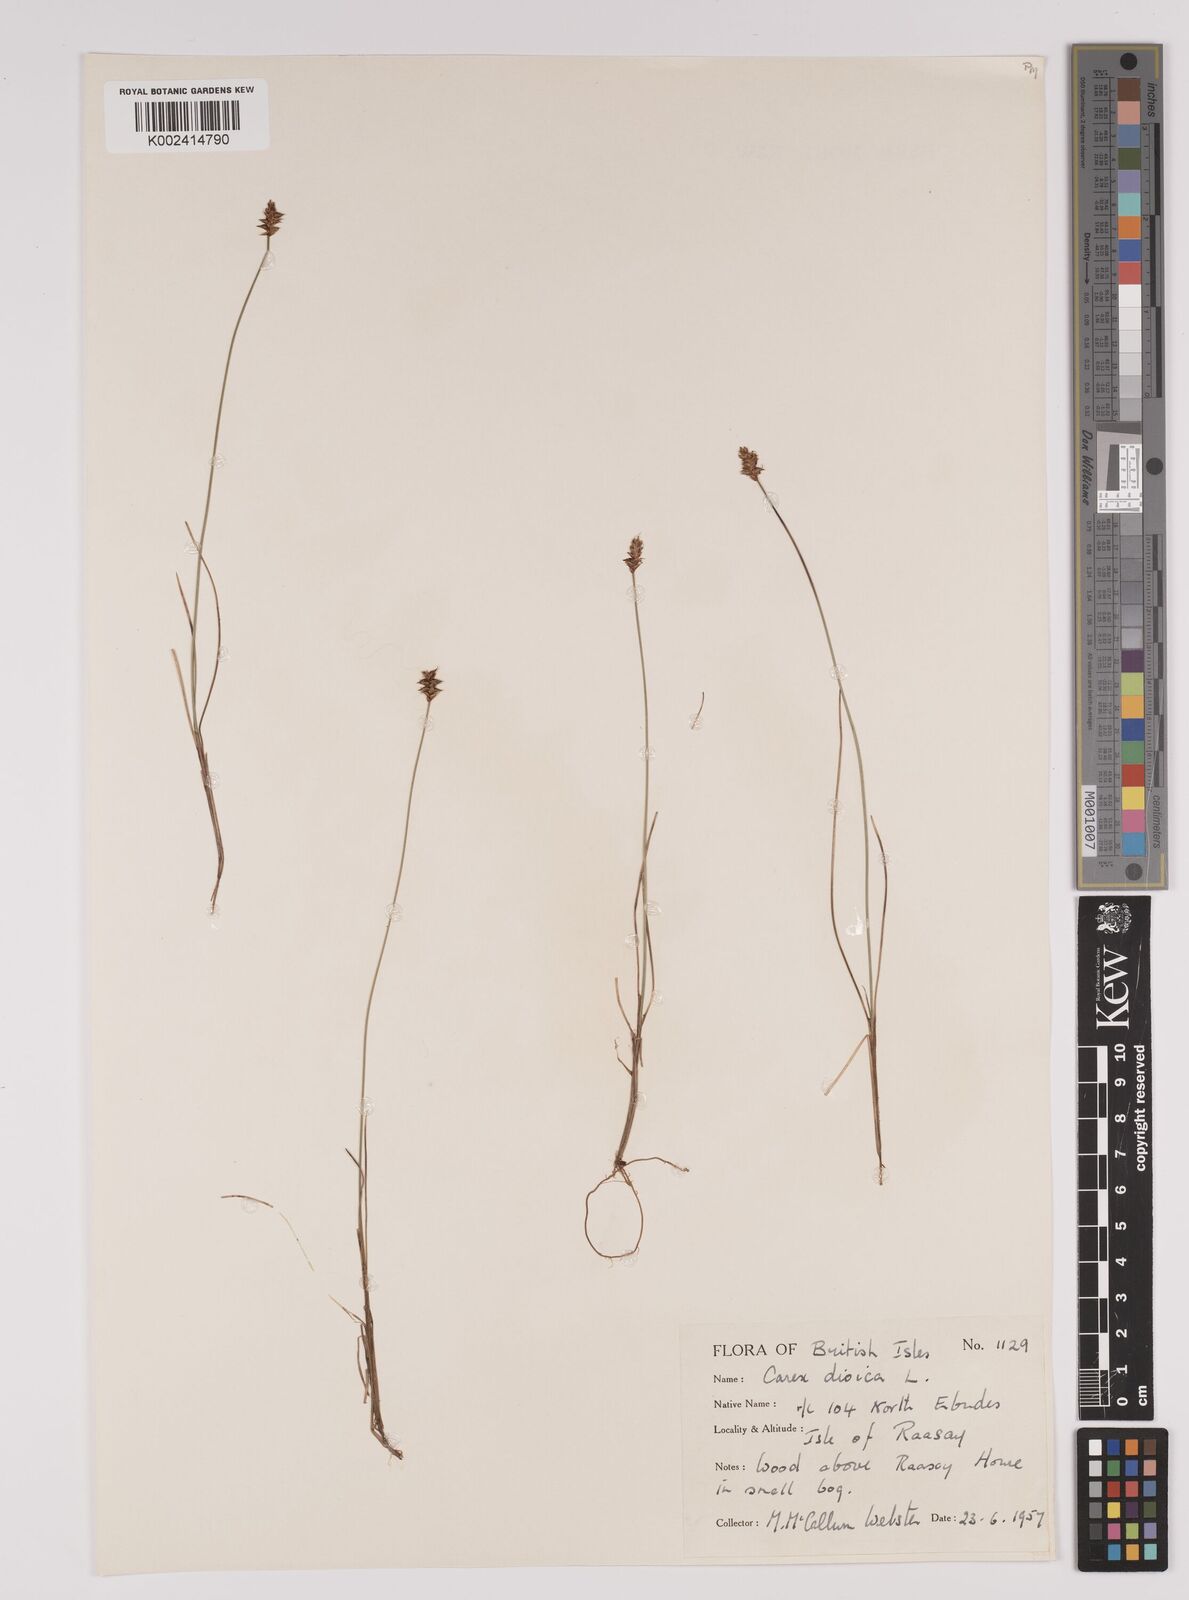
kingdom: Plantae
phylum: Tracheophyta
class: Liliopsida
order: Poales
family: Cyperaceae
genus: Carex
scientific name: Carex dioica
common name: Dioecious sedge
